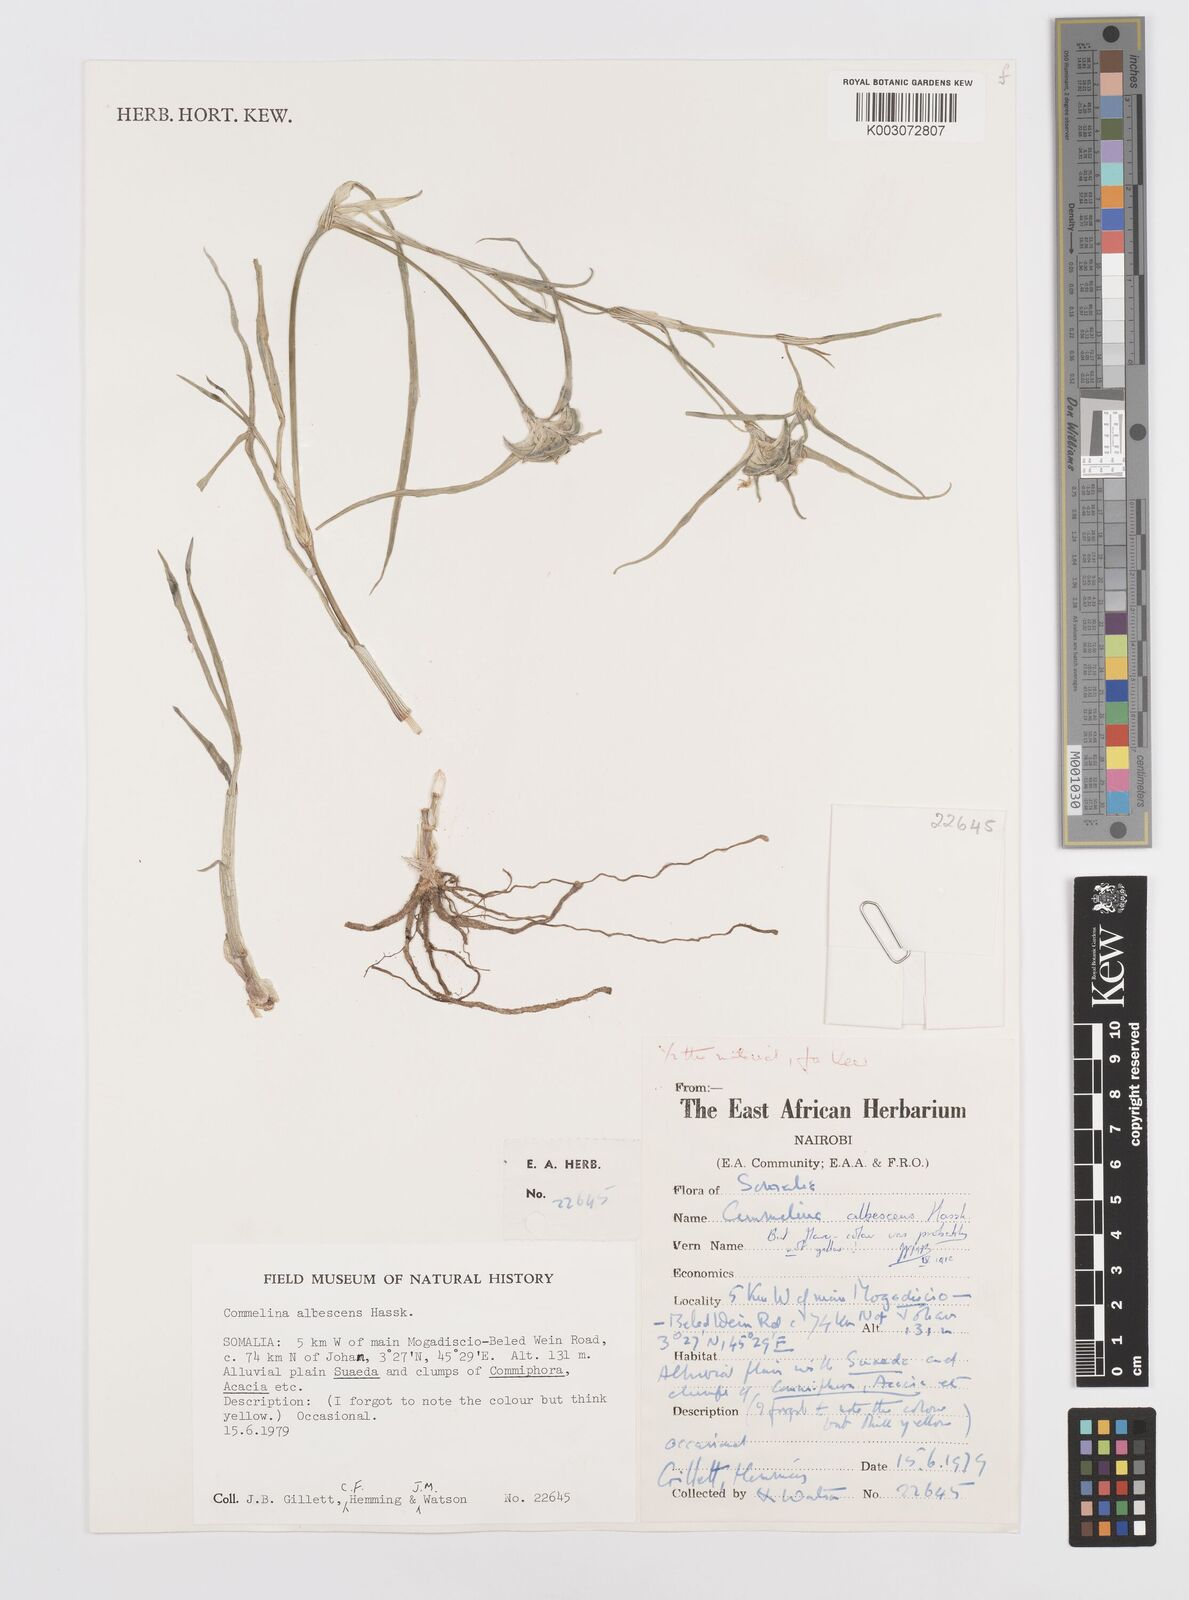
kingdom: Plantae
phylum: Tracheophyta
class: Liliopsida
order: Commelinales
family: Commelinaceae
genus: Commelina
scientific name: Commelina albescens
